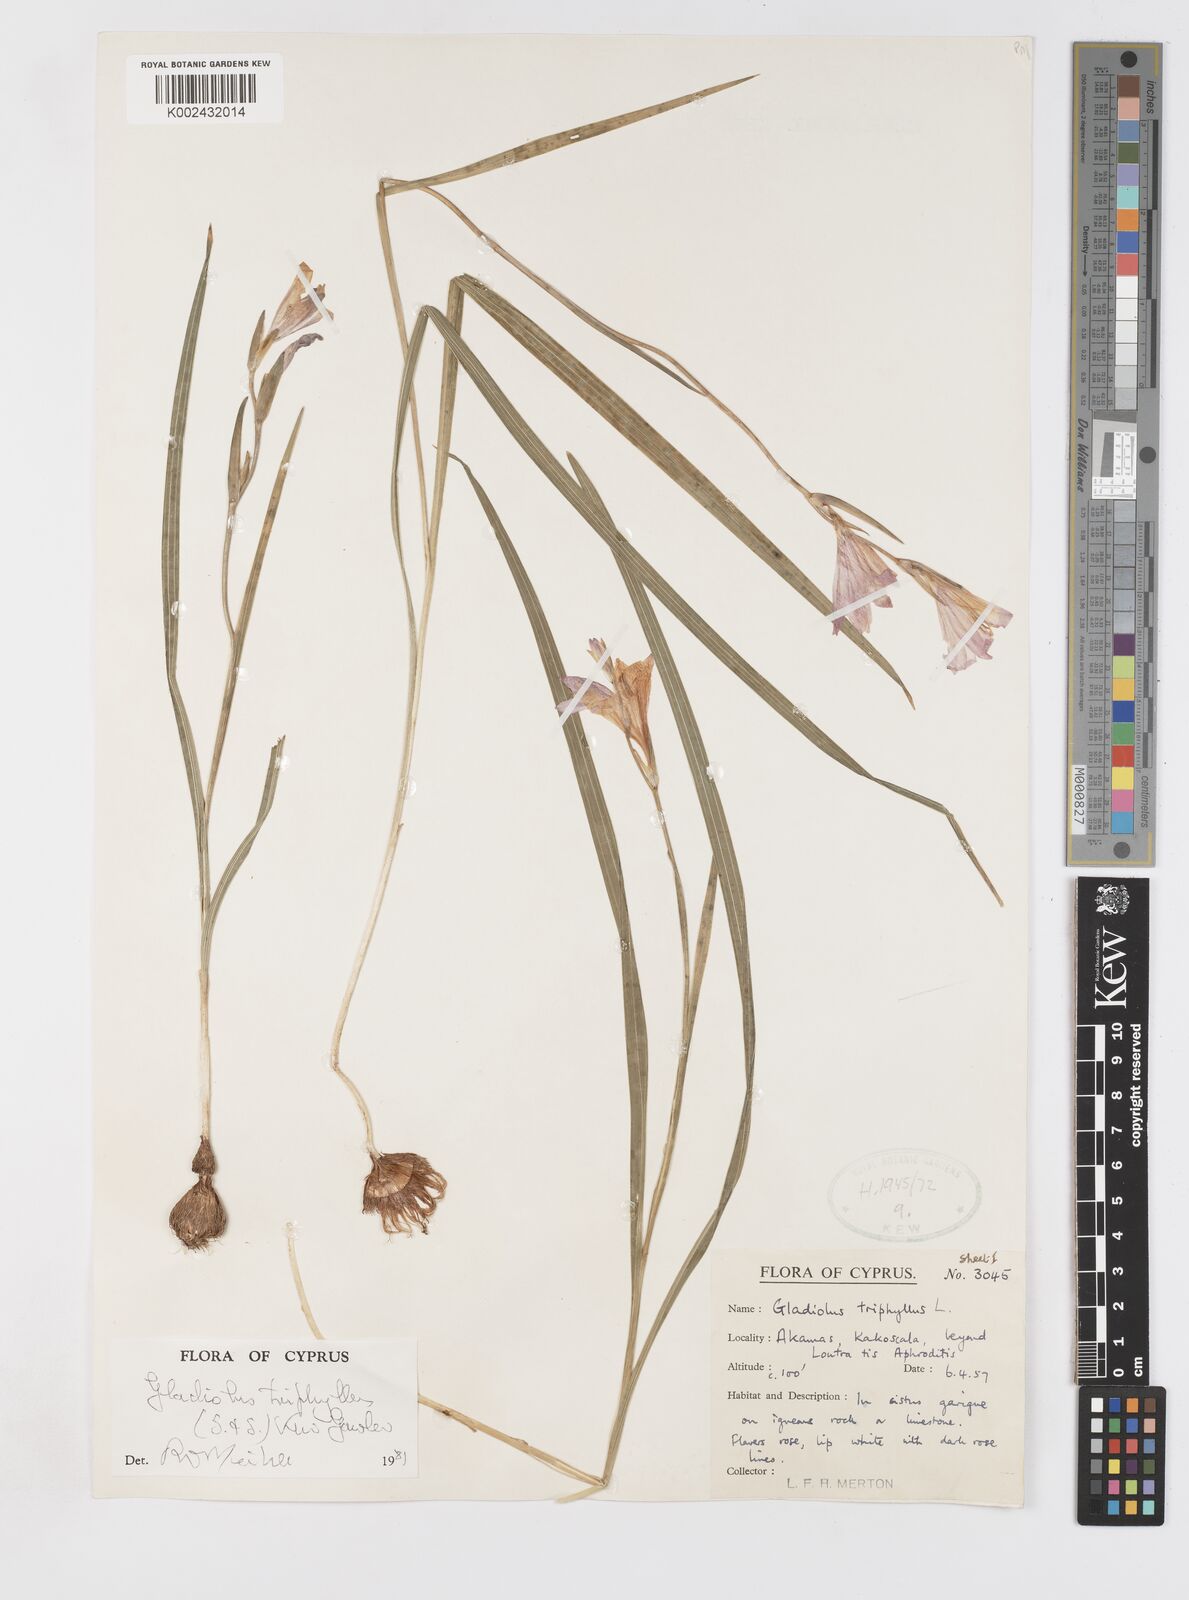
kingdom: Plantae
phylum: Tracheophyta
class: Liliopsida
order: Asparagales
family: Iridaceae
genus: Gladiolus
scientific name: Gladiolus triphyllus
